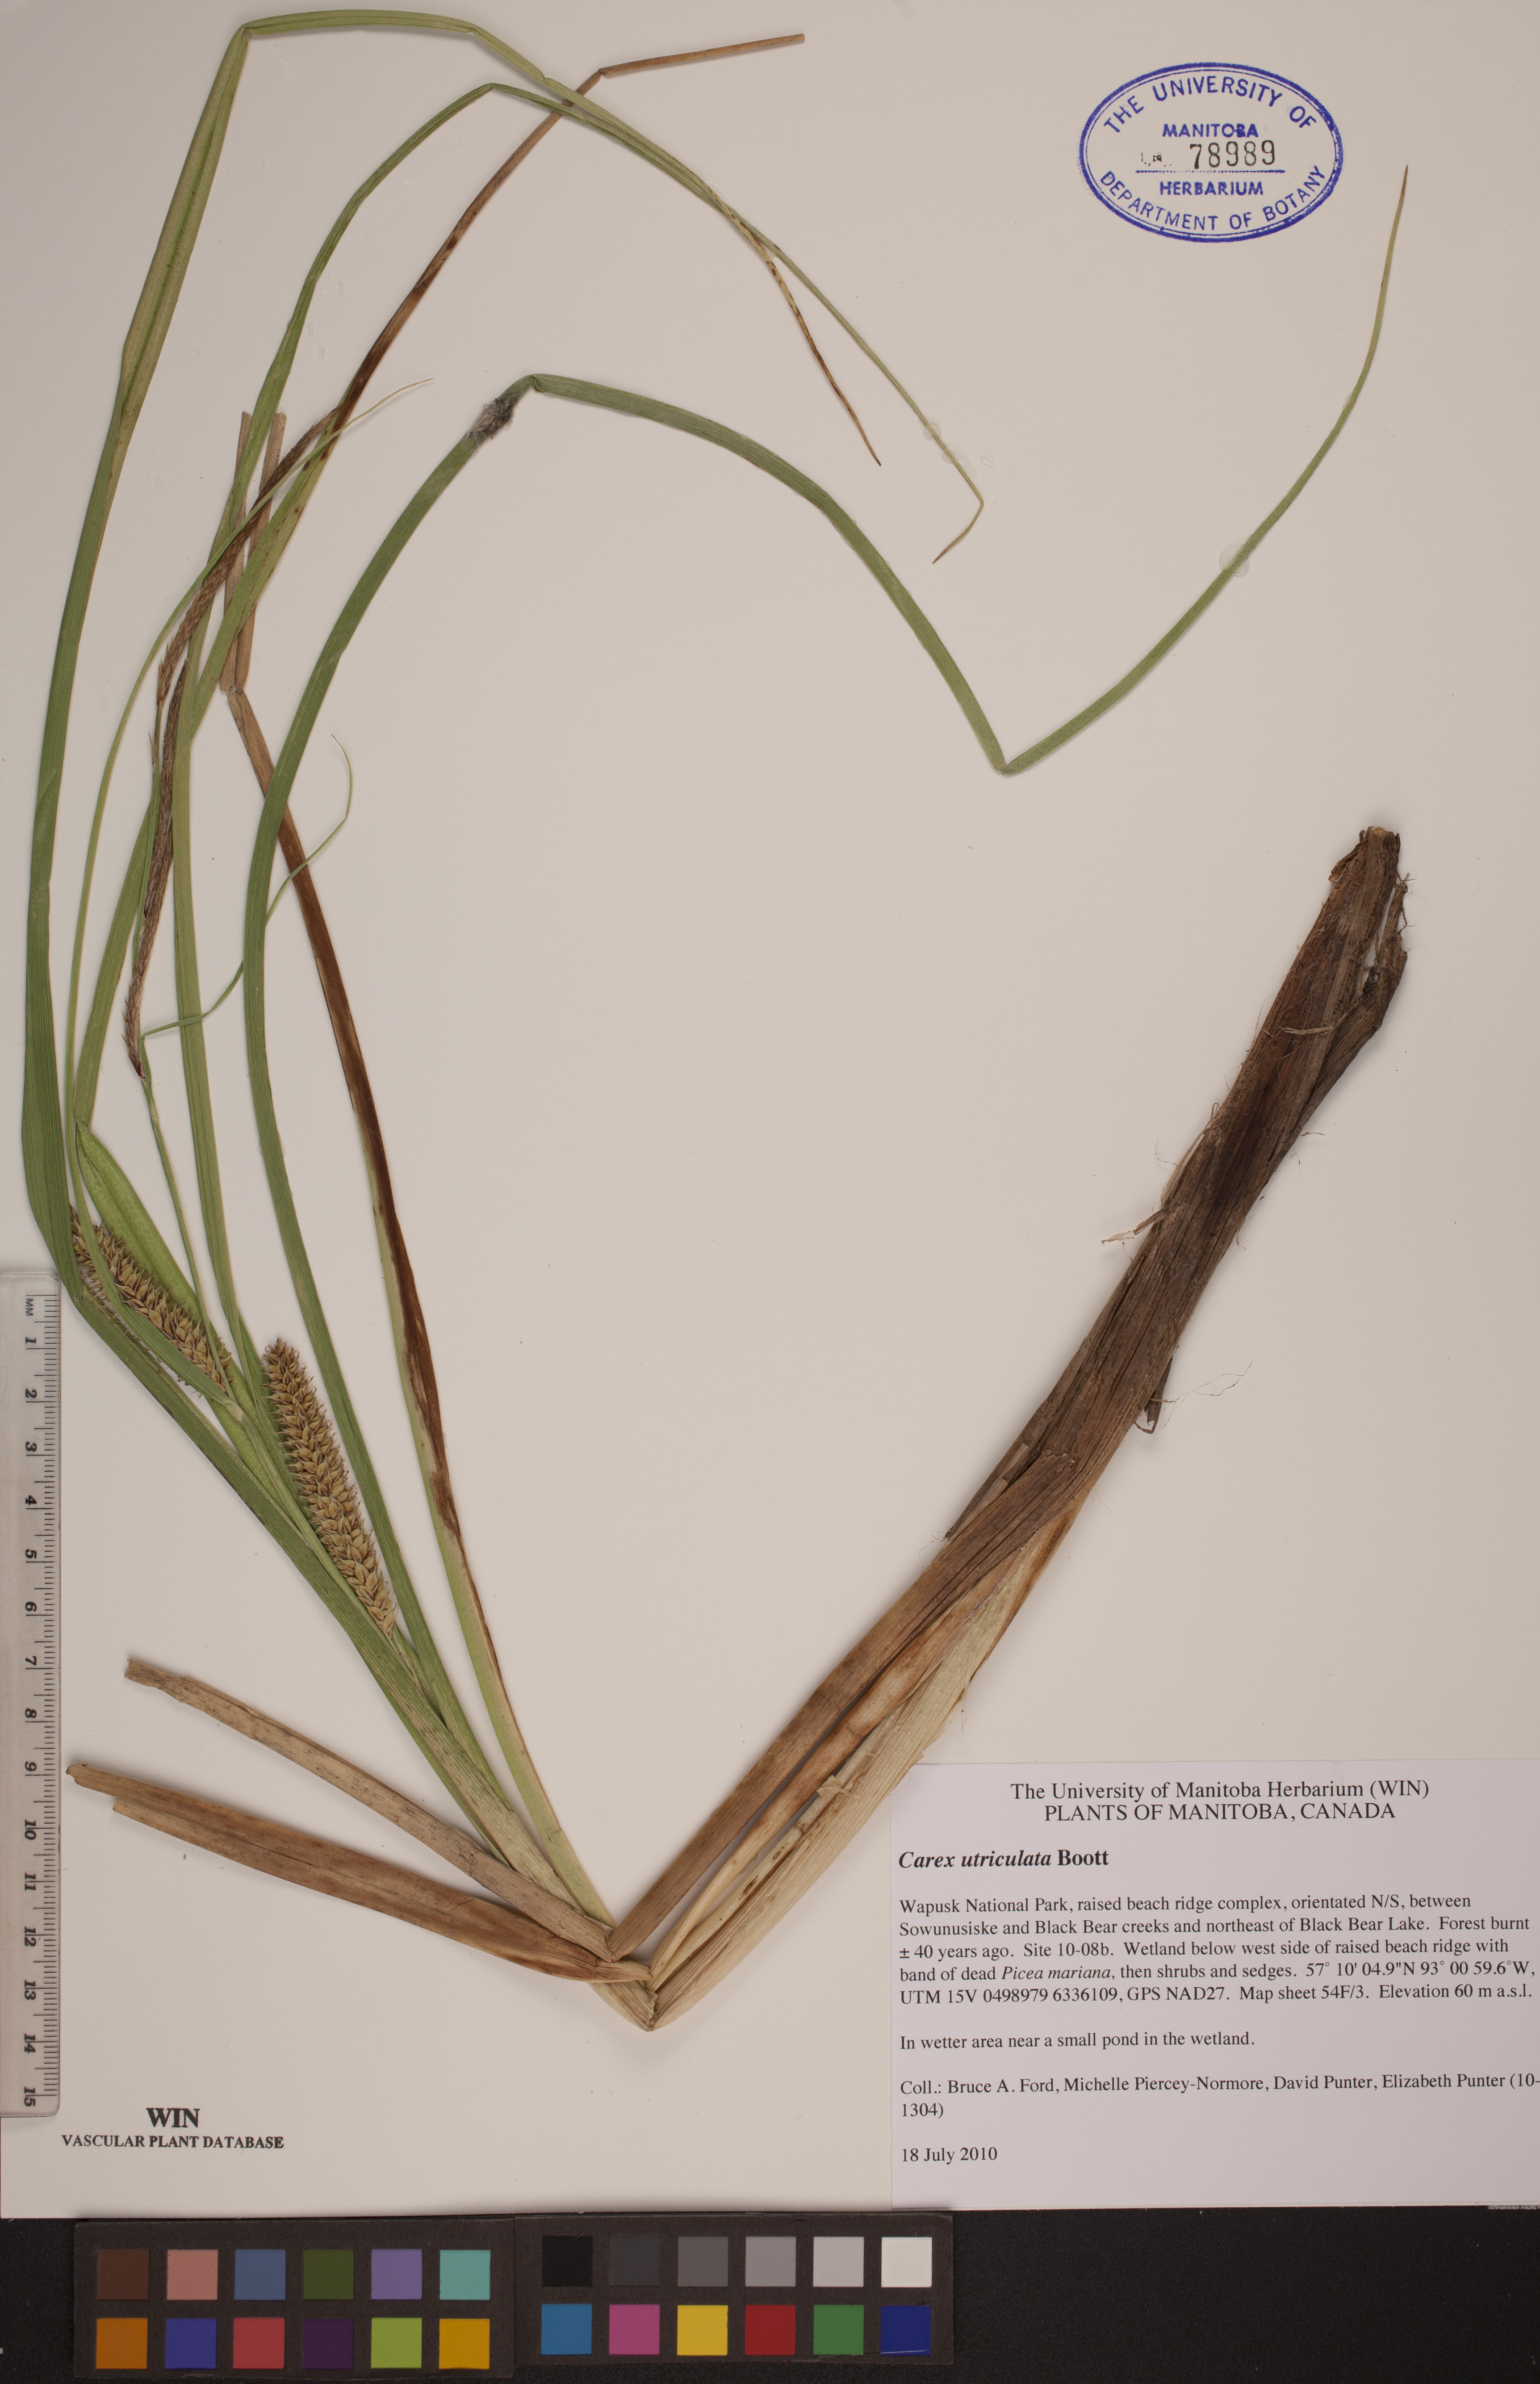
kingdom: Plantae
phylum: Tracheophyta
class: Liliopsida
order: Poales
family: Cyperaceae
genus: Carex
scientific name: Carex utriculata
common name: Beaked sedge
